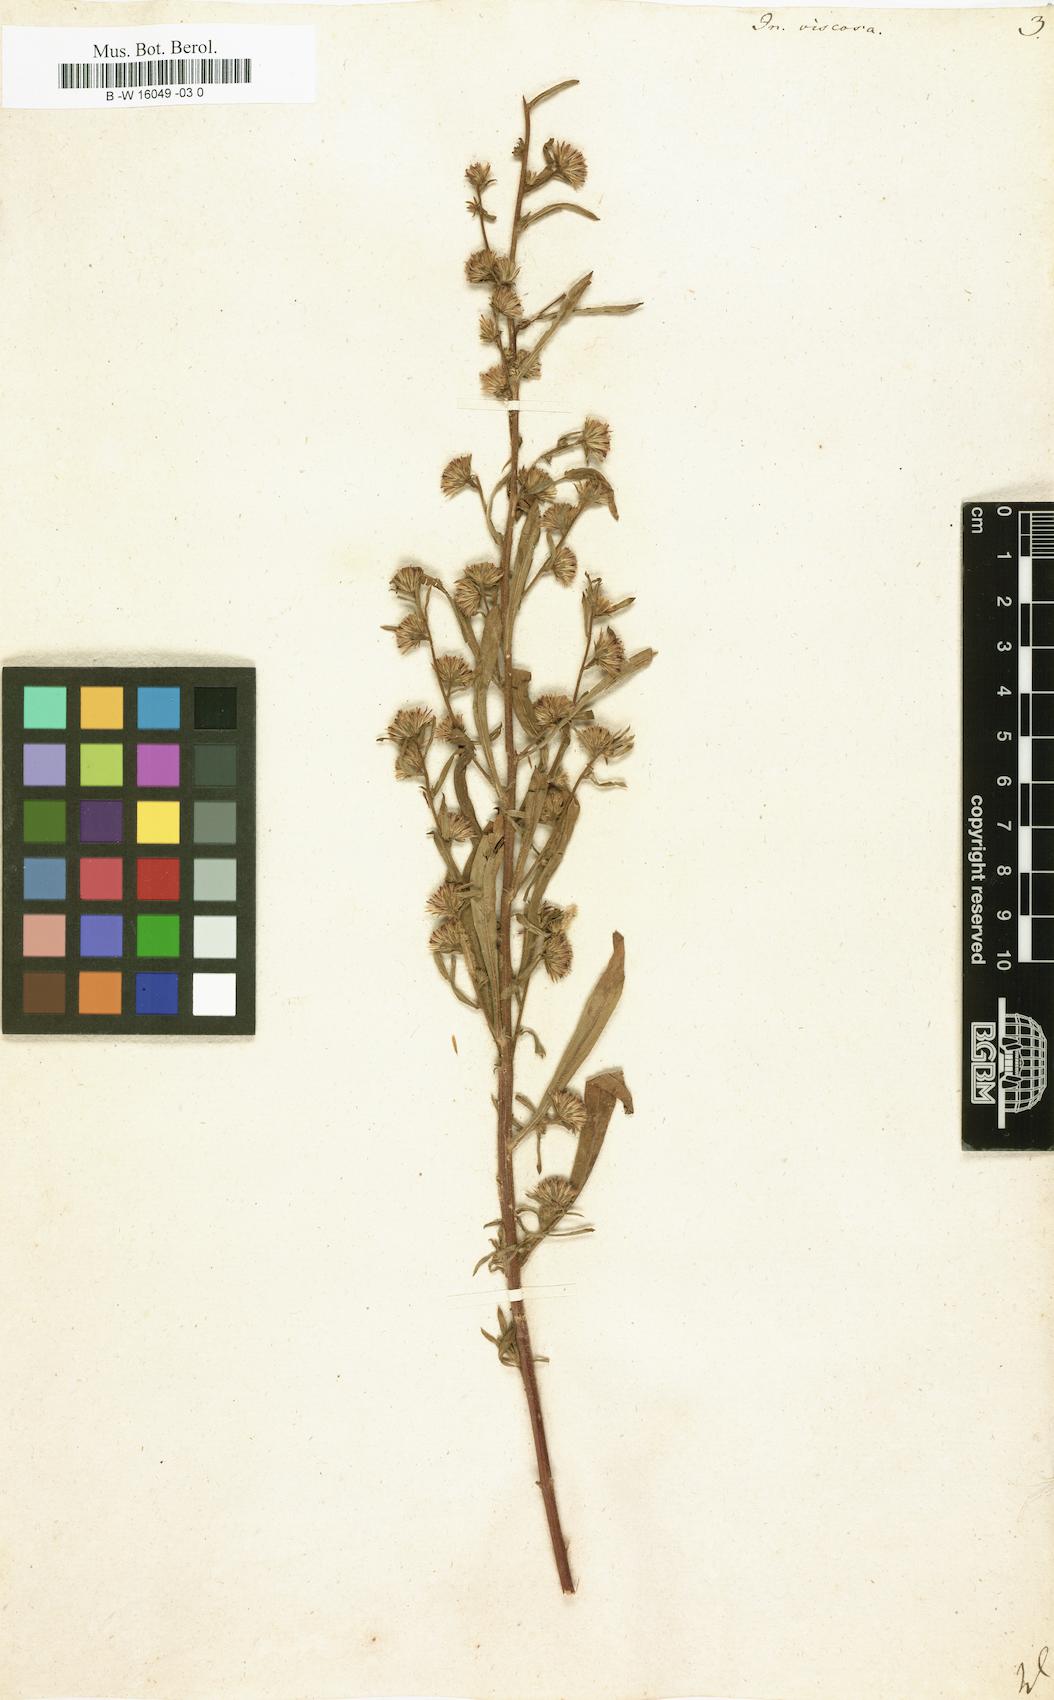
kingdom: Plantae
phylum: Tracheophyta
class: Magnoliopsida
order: Asterales
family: Asteraceae
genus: Dittrichia
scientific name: Dittrichia viscosa
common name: Woody fleabane
